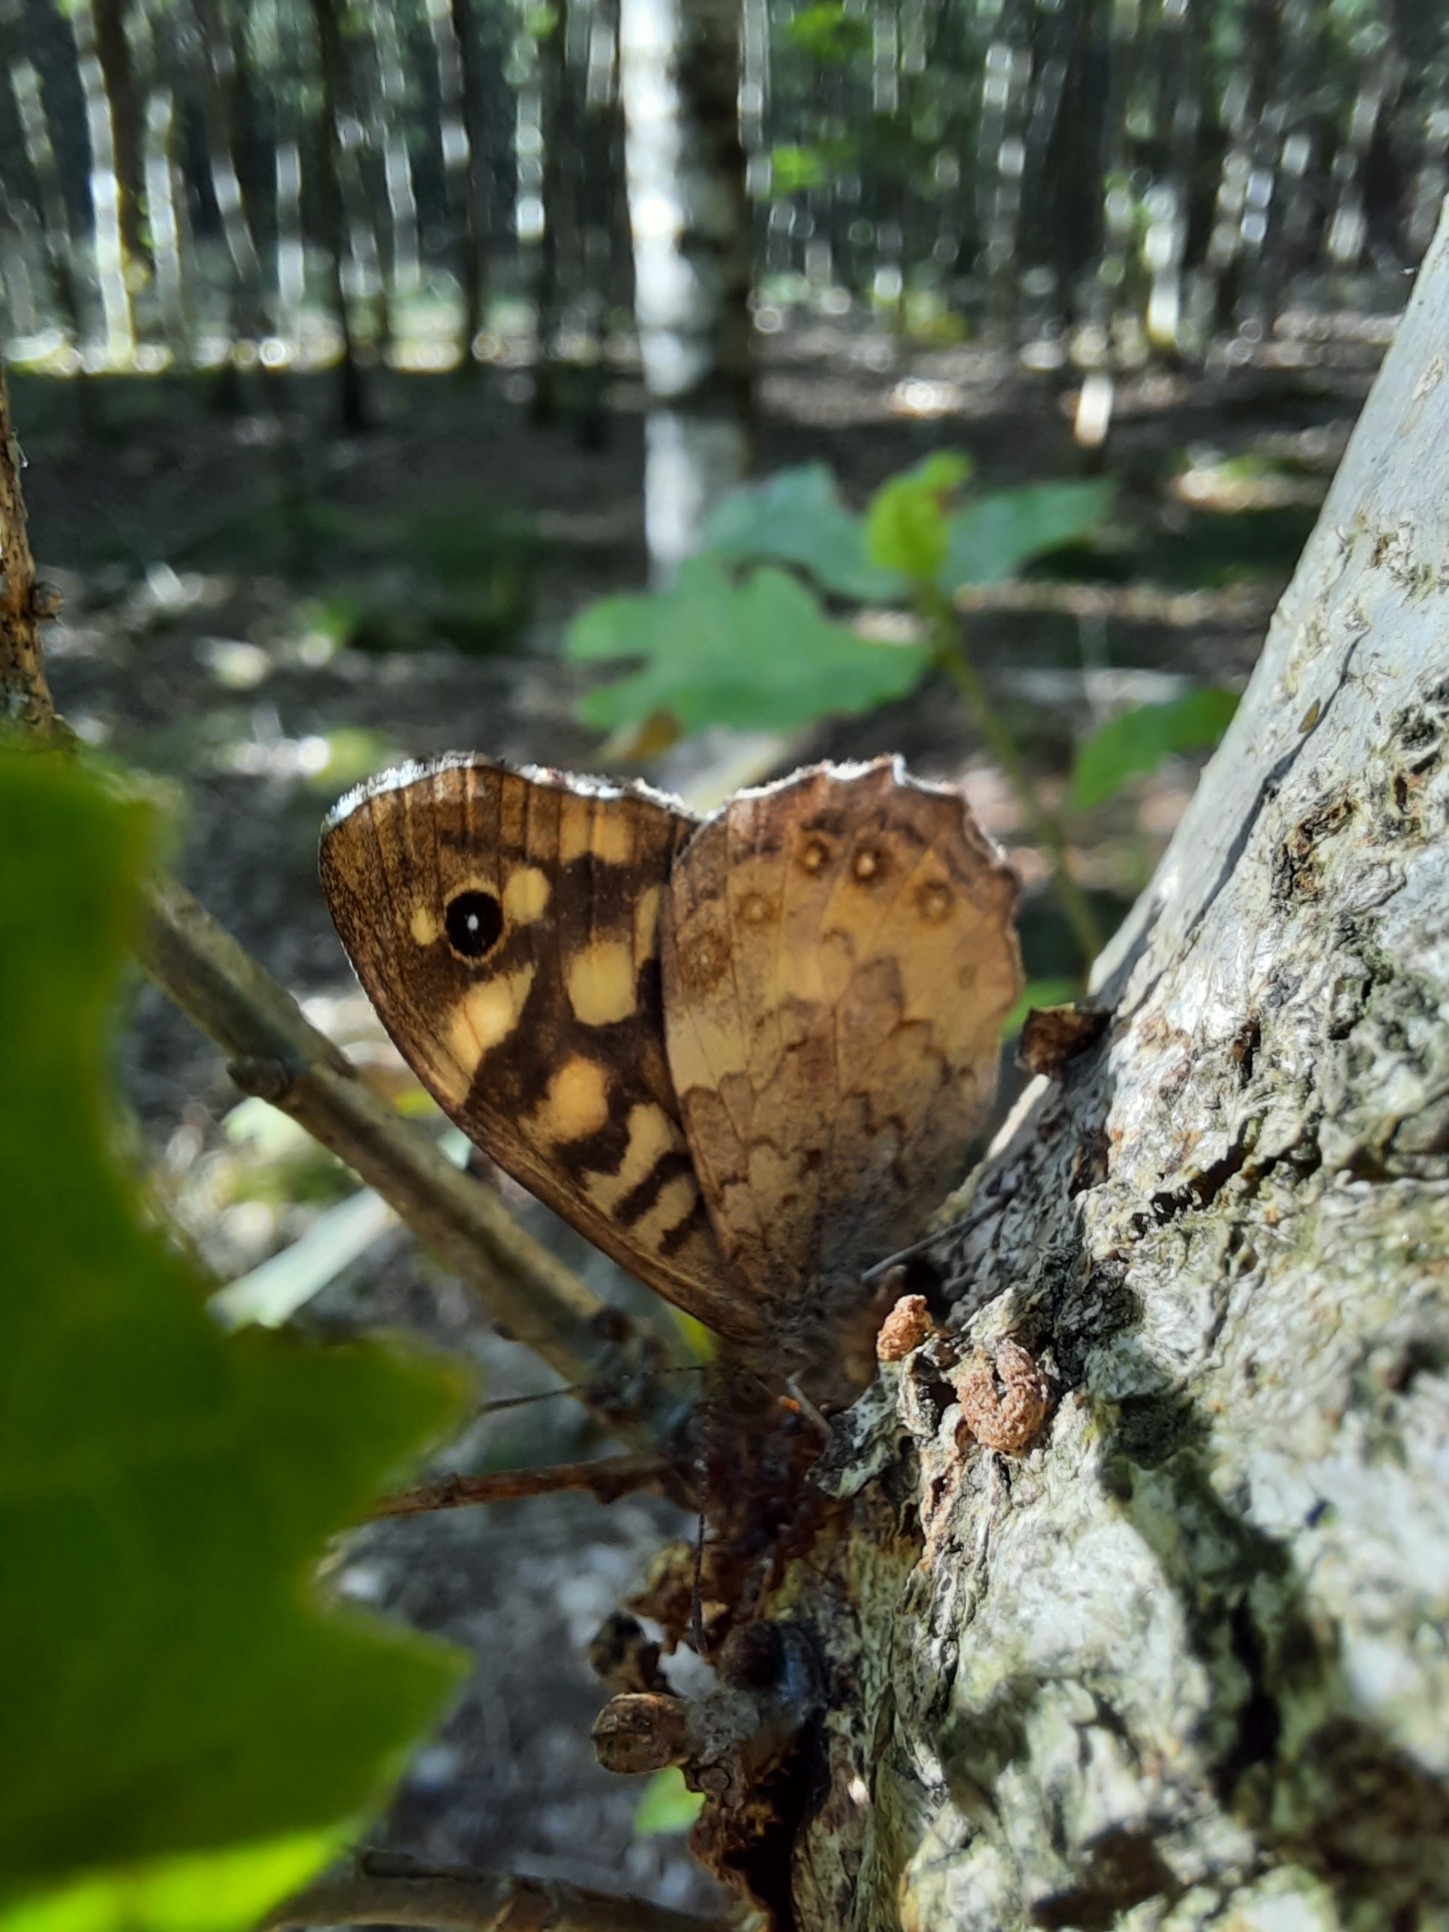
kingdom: Animalia
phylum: Arthropoda
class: Insecta
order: Lepidoptera
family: Nymphalidae
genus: Pararge
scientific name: Pararge aegeria
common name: Skovrandøje
